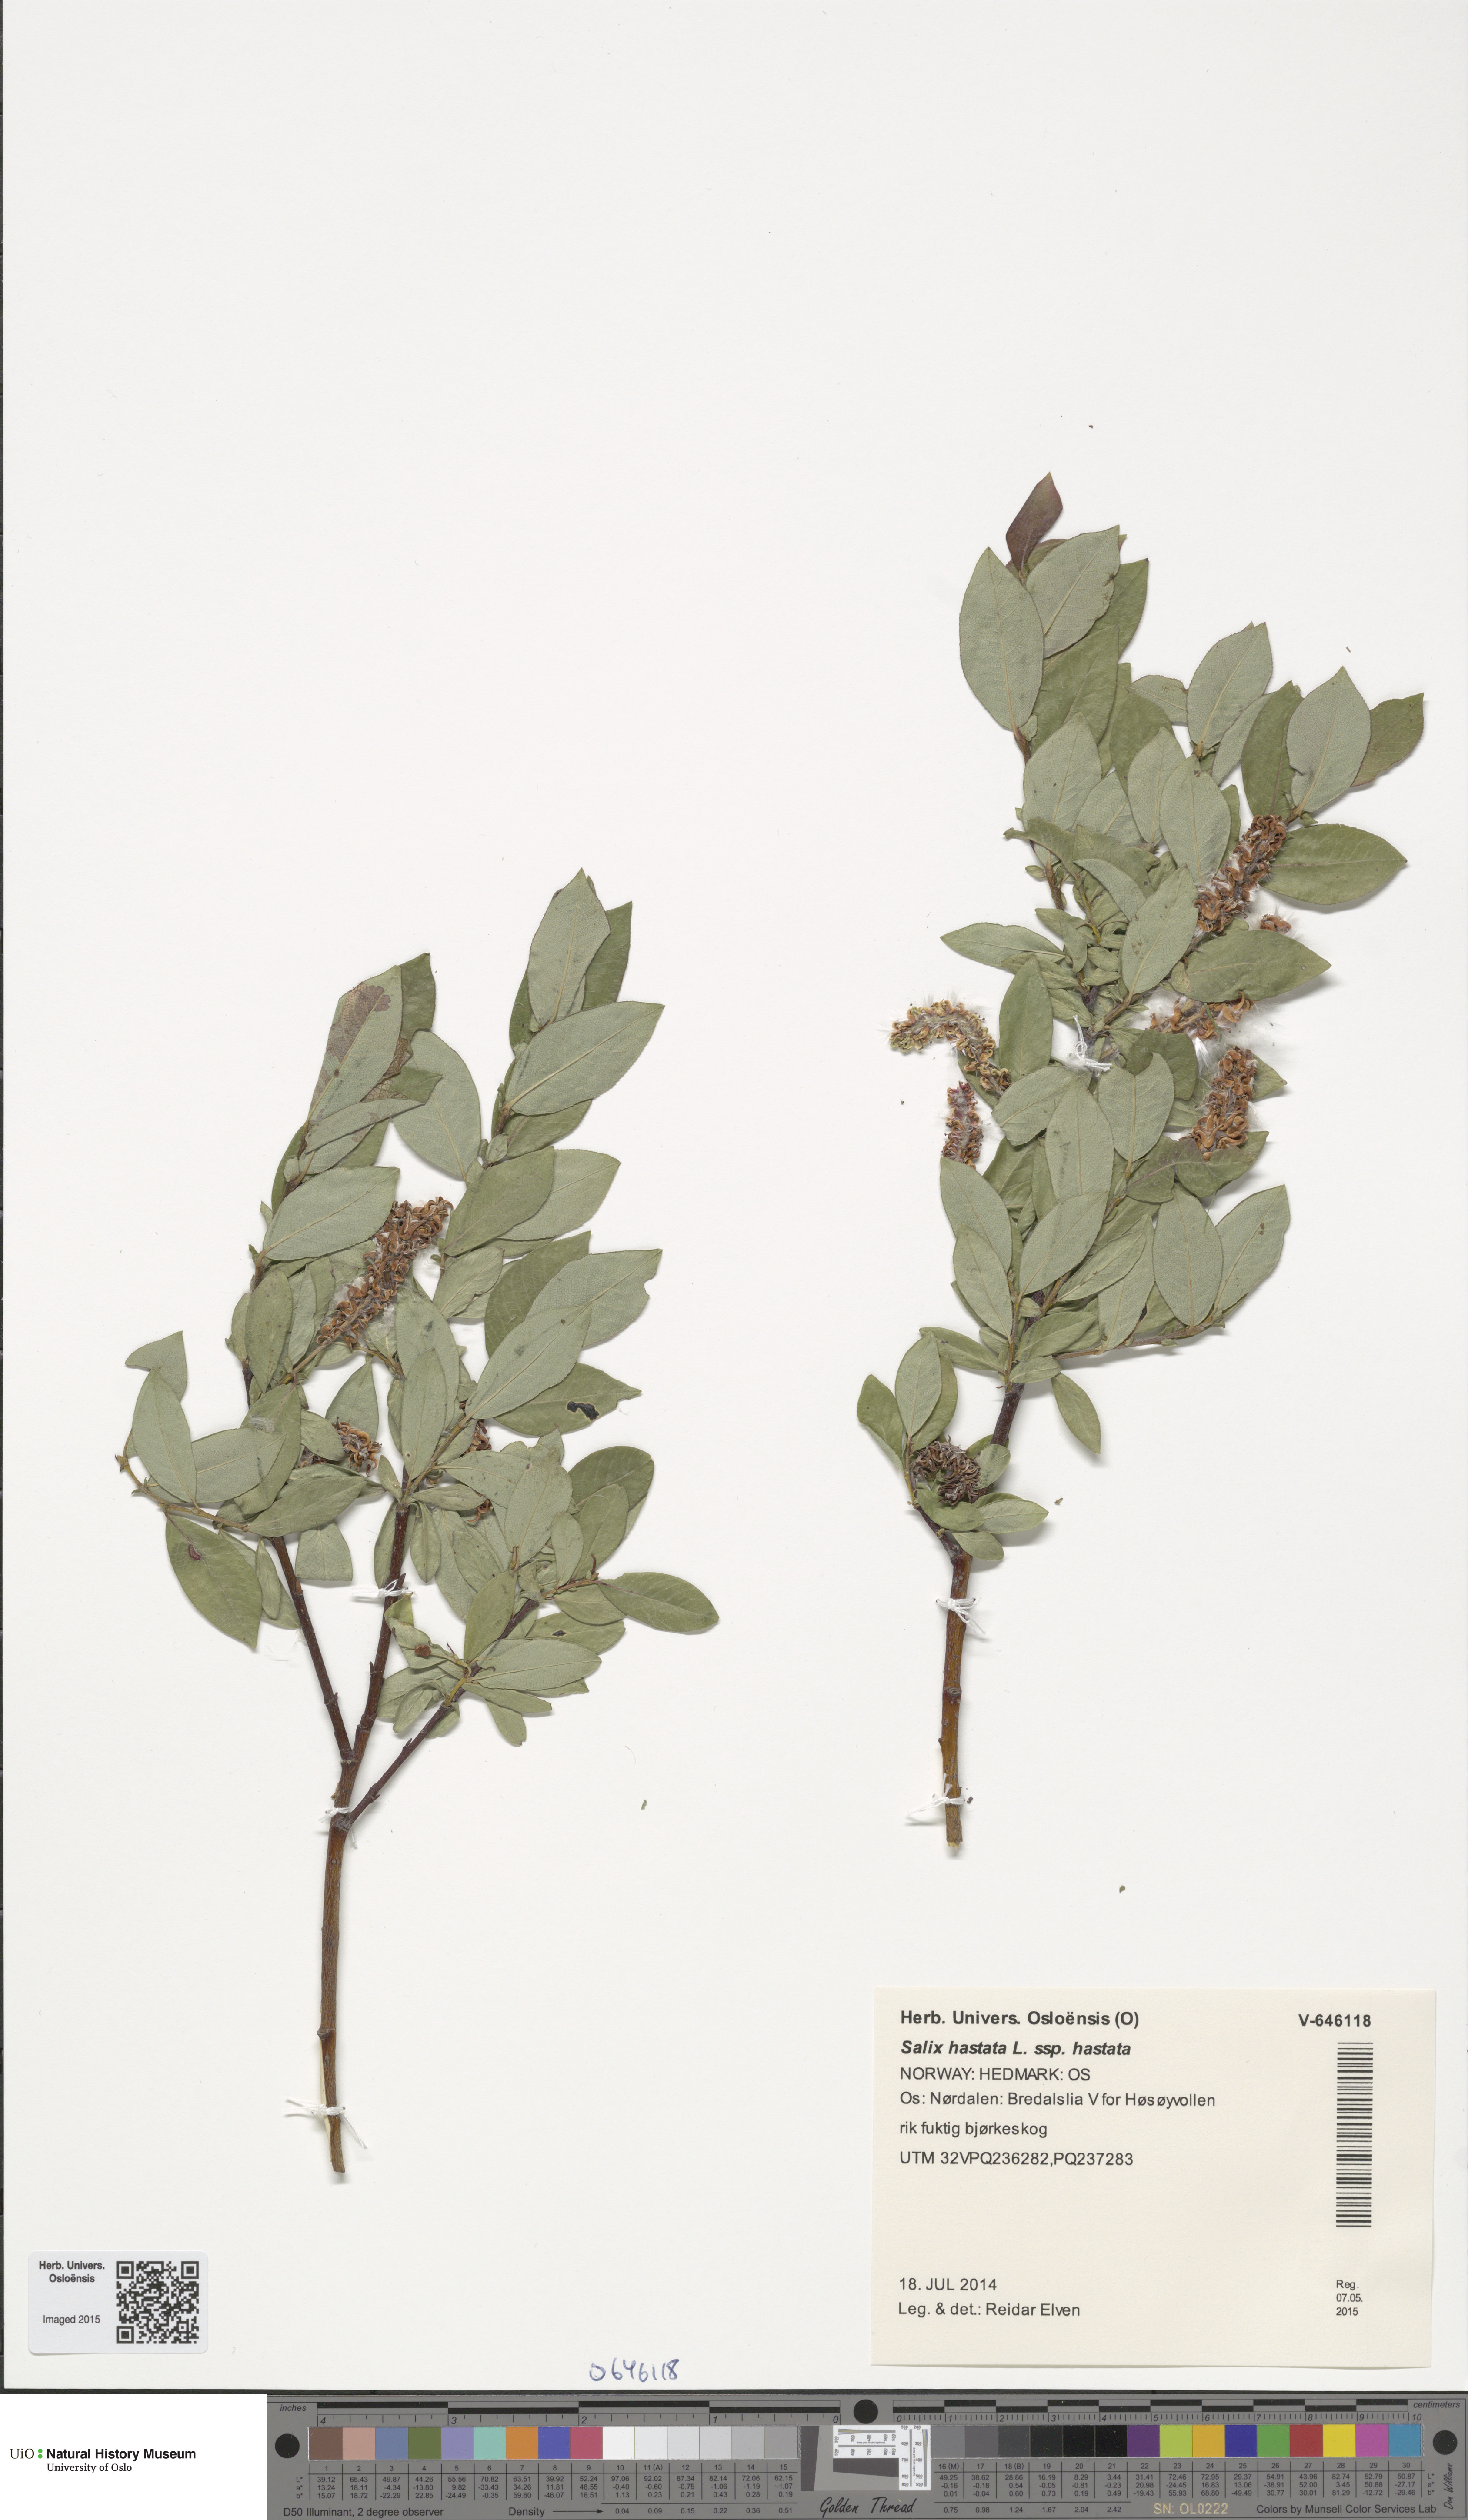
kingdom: Plantae
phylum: Tracheophyta
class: Magnoliopsida
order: Malpighiales
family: Salicaceae
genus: Salix
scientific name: Salix hastata
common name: Halberd willow
